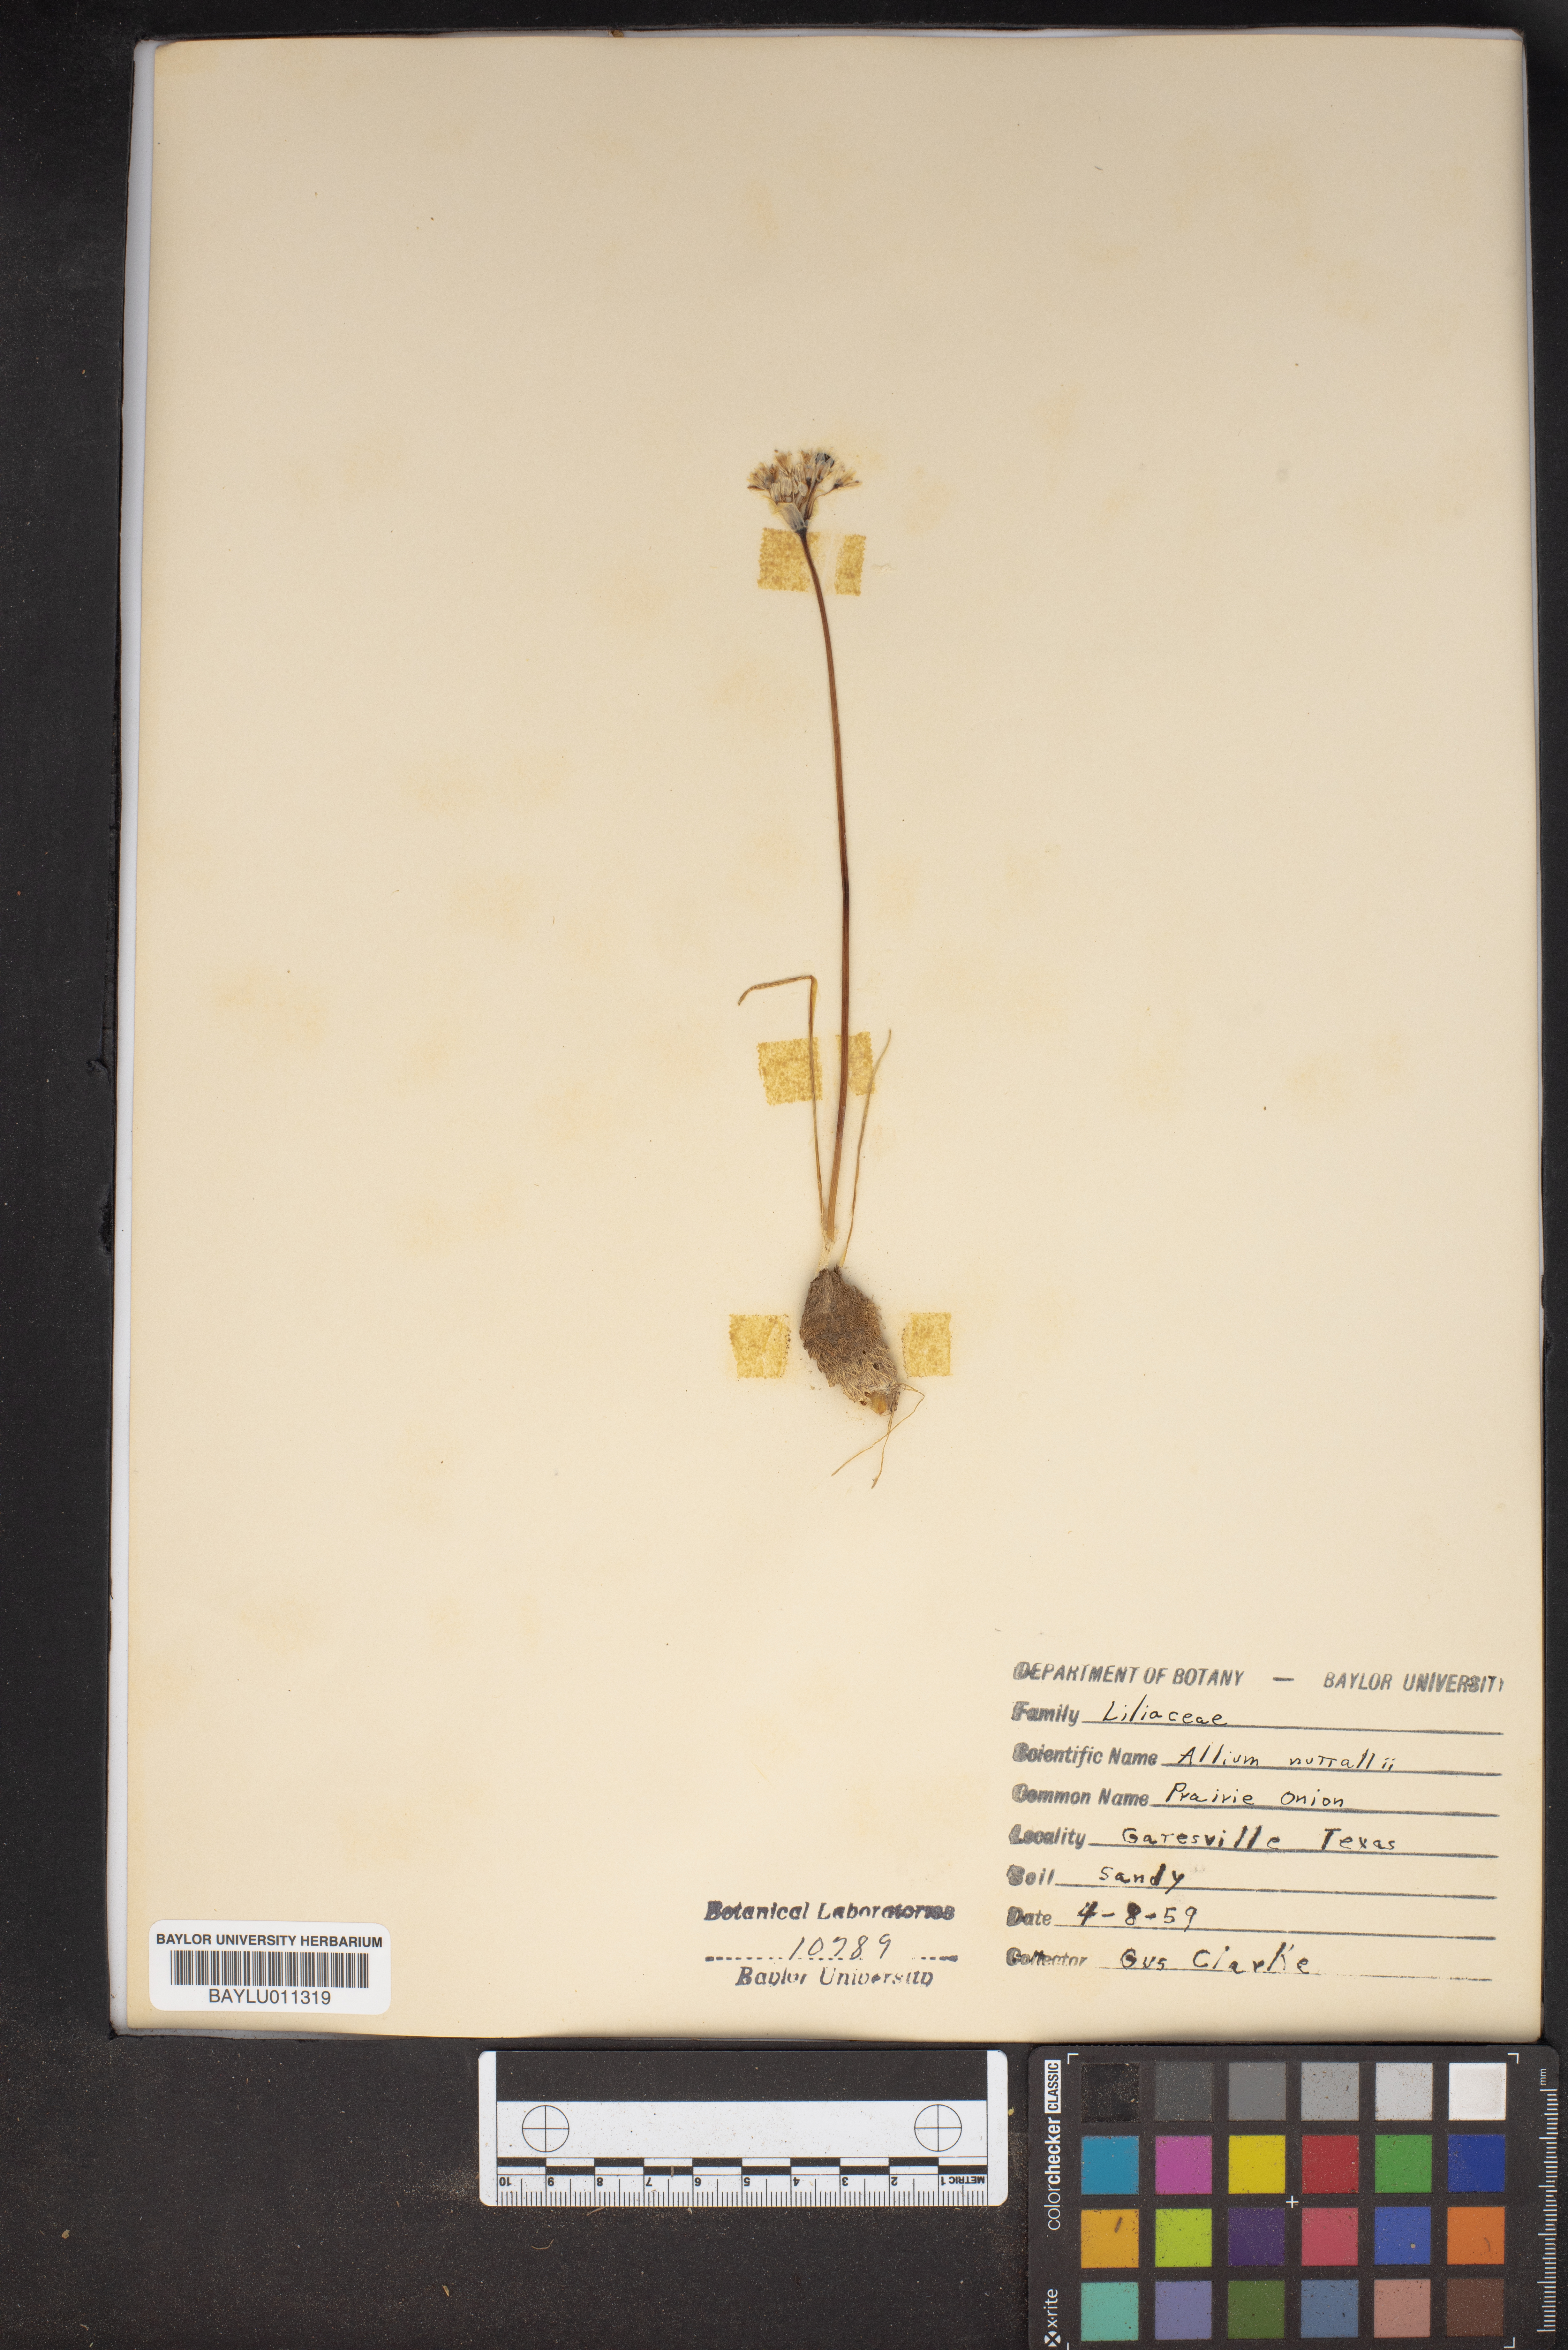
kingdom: Plantae
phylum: Tracheophyta
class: Liliopsida
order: Asparagales
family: Amaryllidaceae
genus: Allium
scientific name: Allium drummondii
